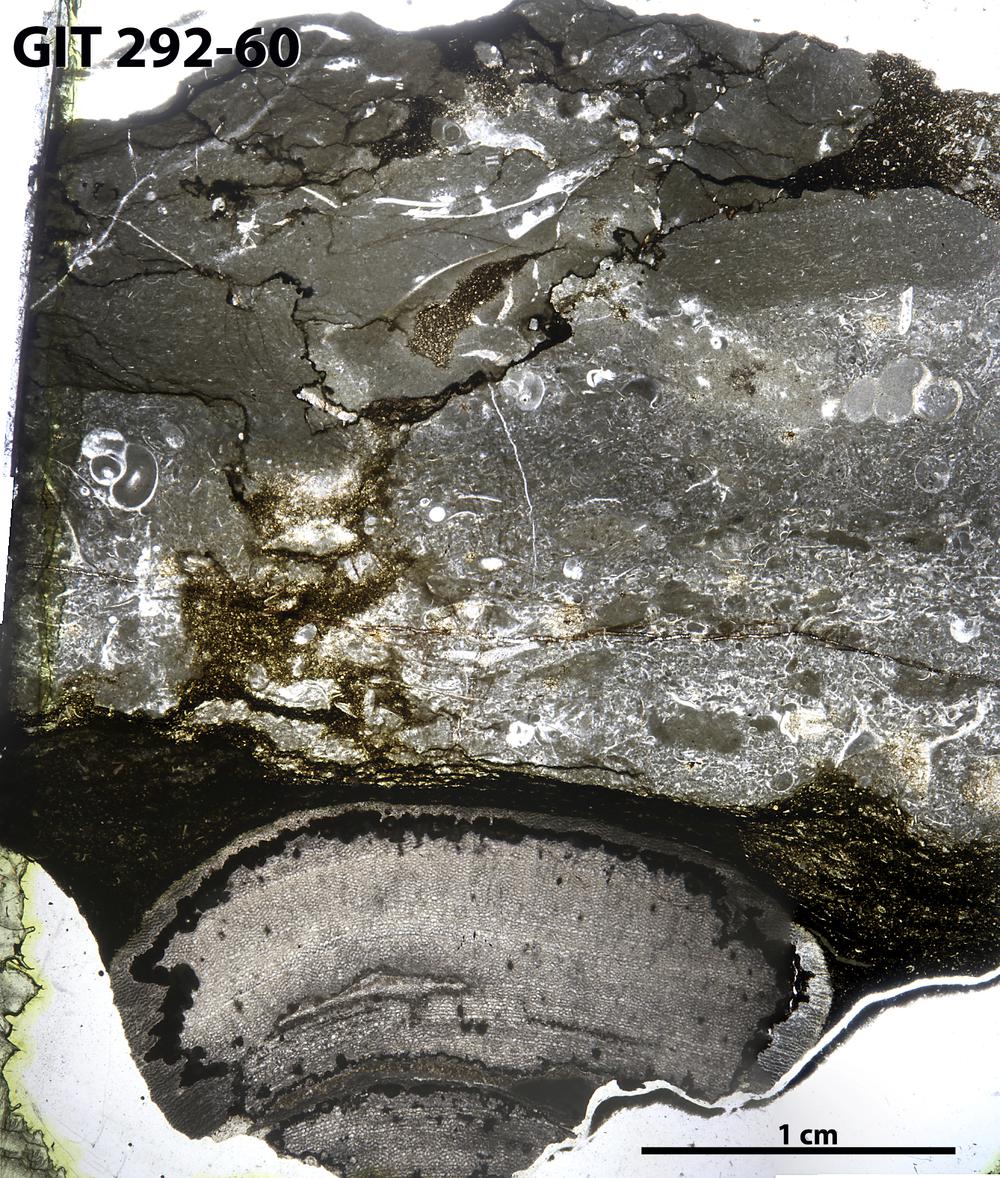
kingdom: Animalia
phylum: Porifera
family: Ecclimadictyidae
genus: Ecclimadictyon
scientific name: Ecclimadictyon Clathrodictyon microvesiculosum
